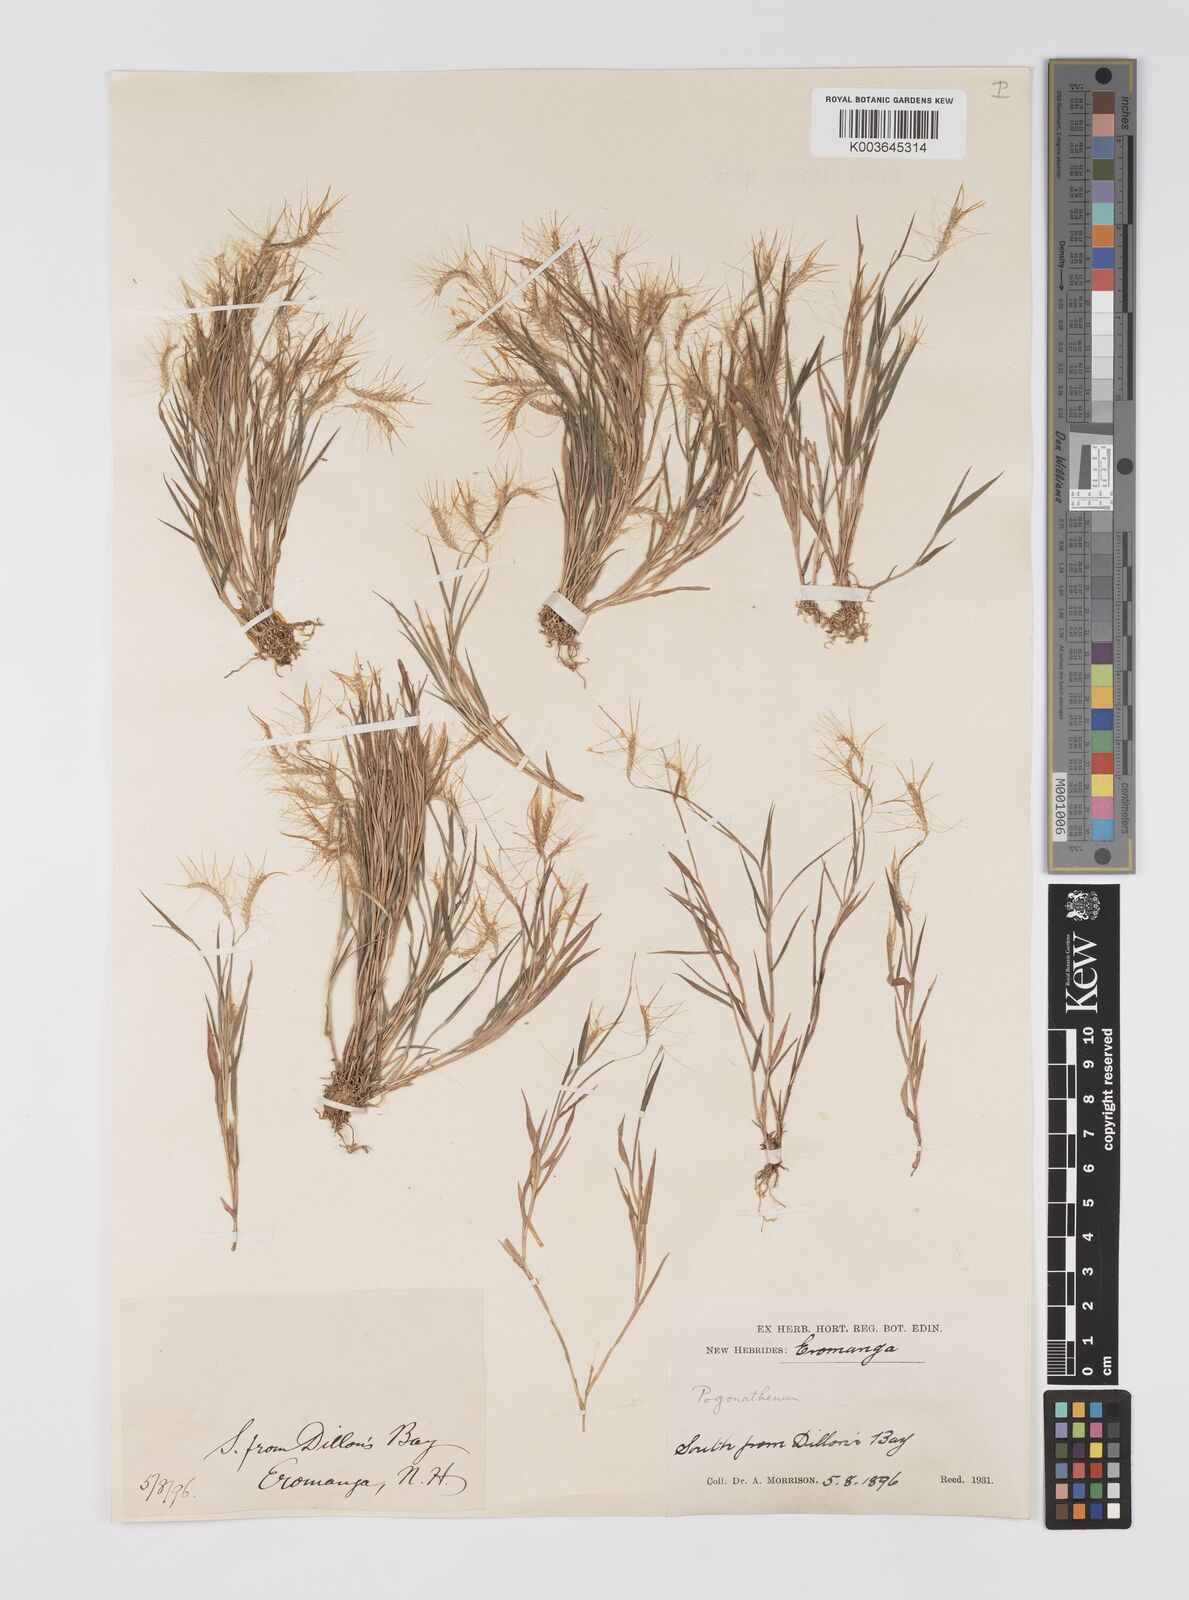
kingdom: Plantae
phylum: Tracheophyta
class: Liliopsida
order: Poales
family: Poaceae
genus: Pogonatherum
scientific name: Pogonatherum crinitum
